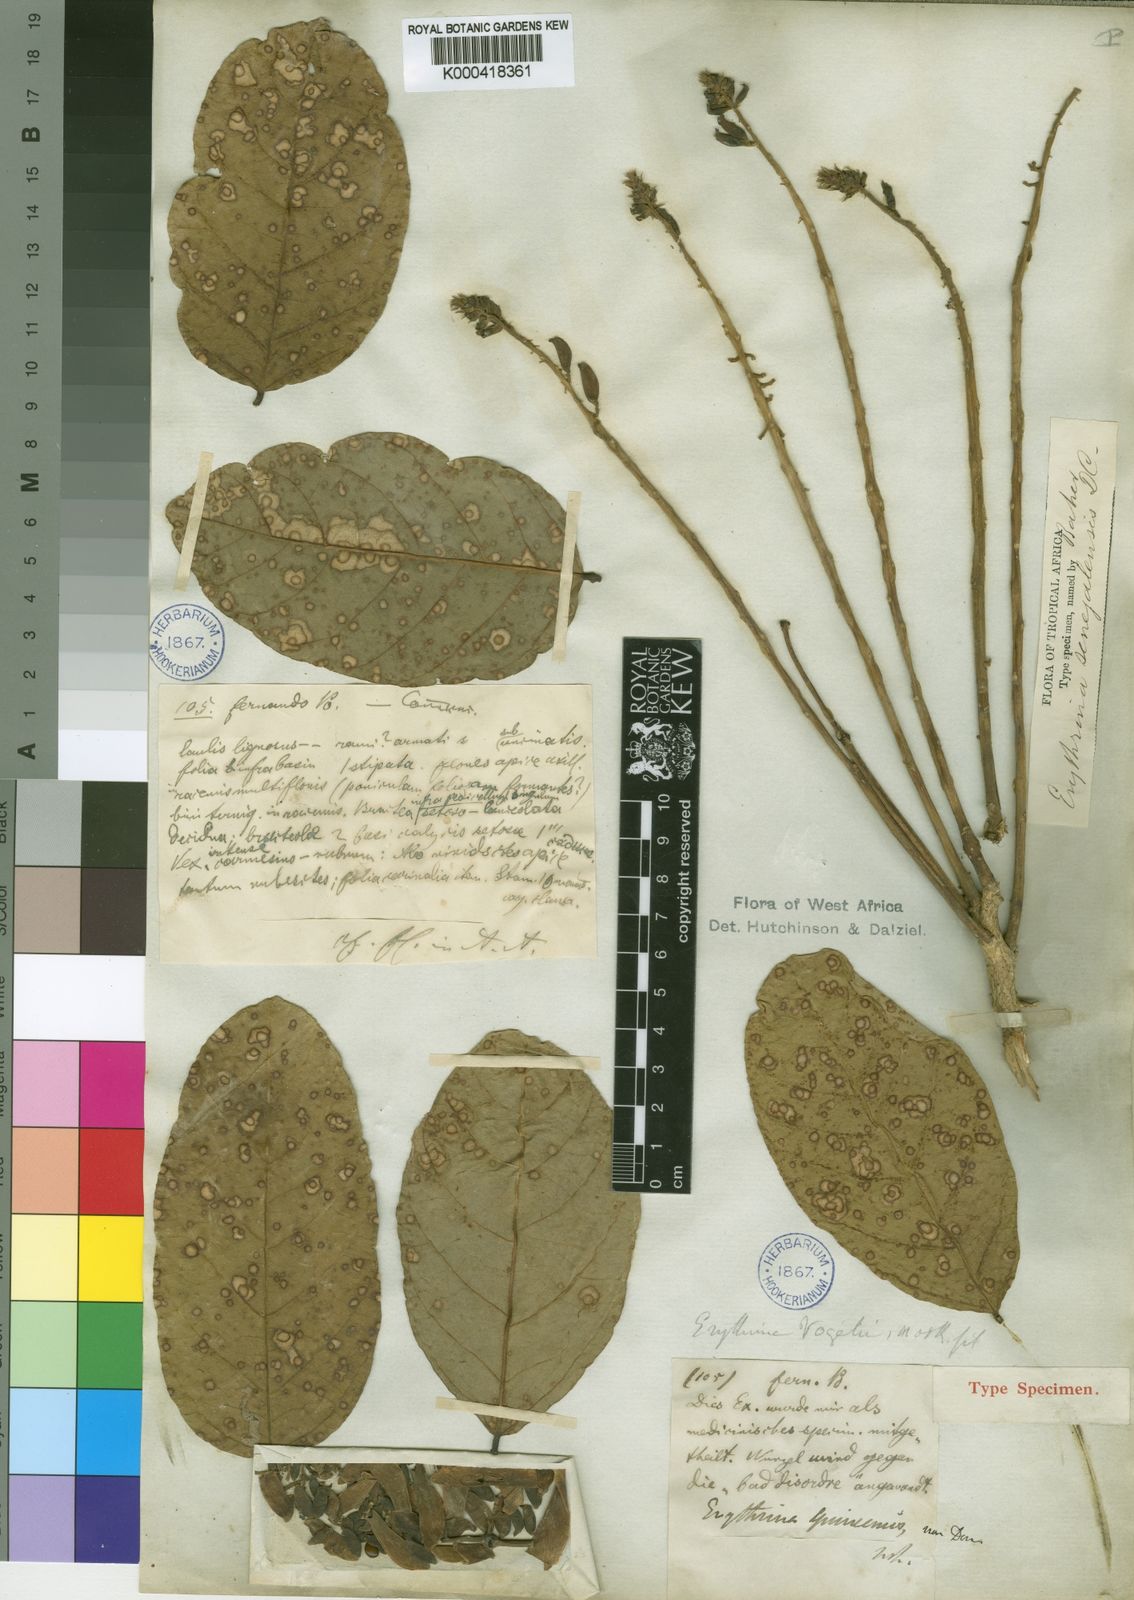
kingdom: Plantae
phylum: Tracheophyta
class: Magnoliopsida
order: Fabales
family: Fabaceae
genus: Erythrina
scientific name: Erythrina vogelii
